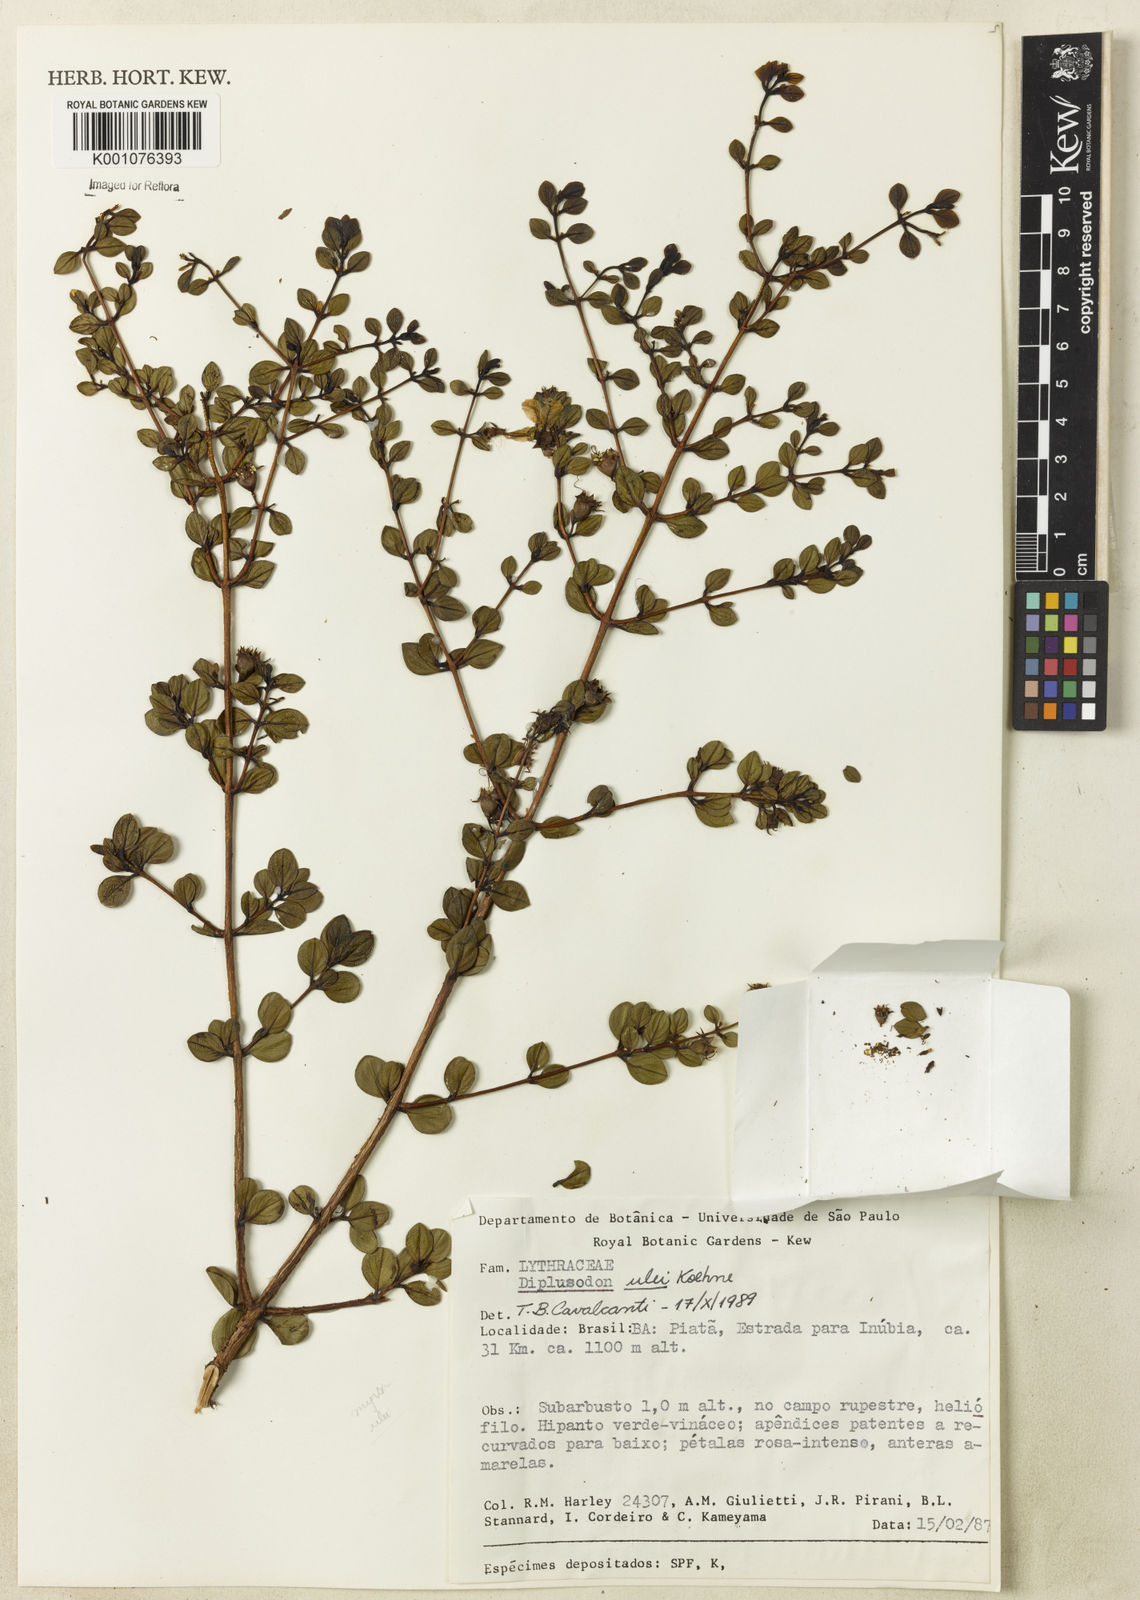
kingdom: Plantae
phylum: Tracheophyta
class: Magnoliopsida
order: Myrtales
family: Lythraceae
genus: Diplusodon
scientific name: Diplusodon ulei
